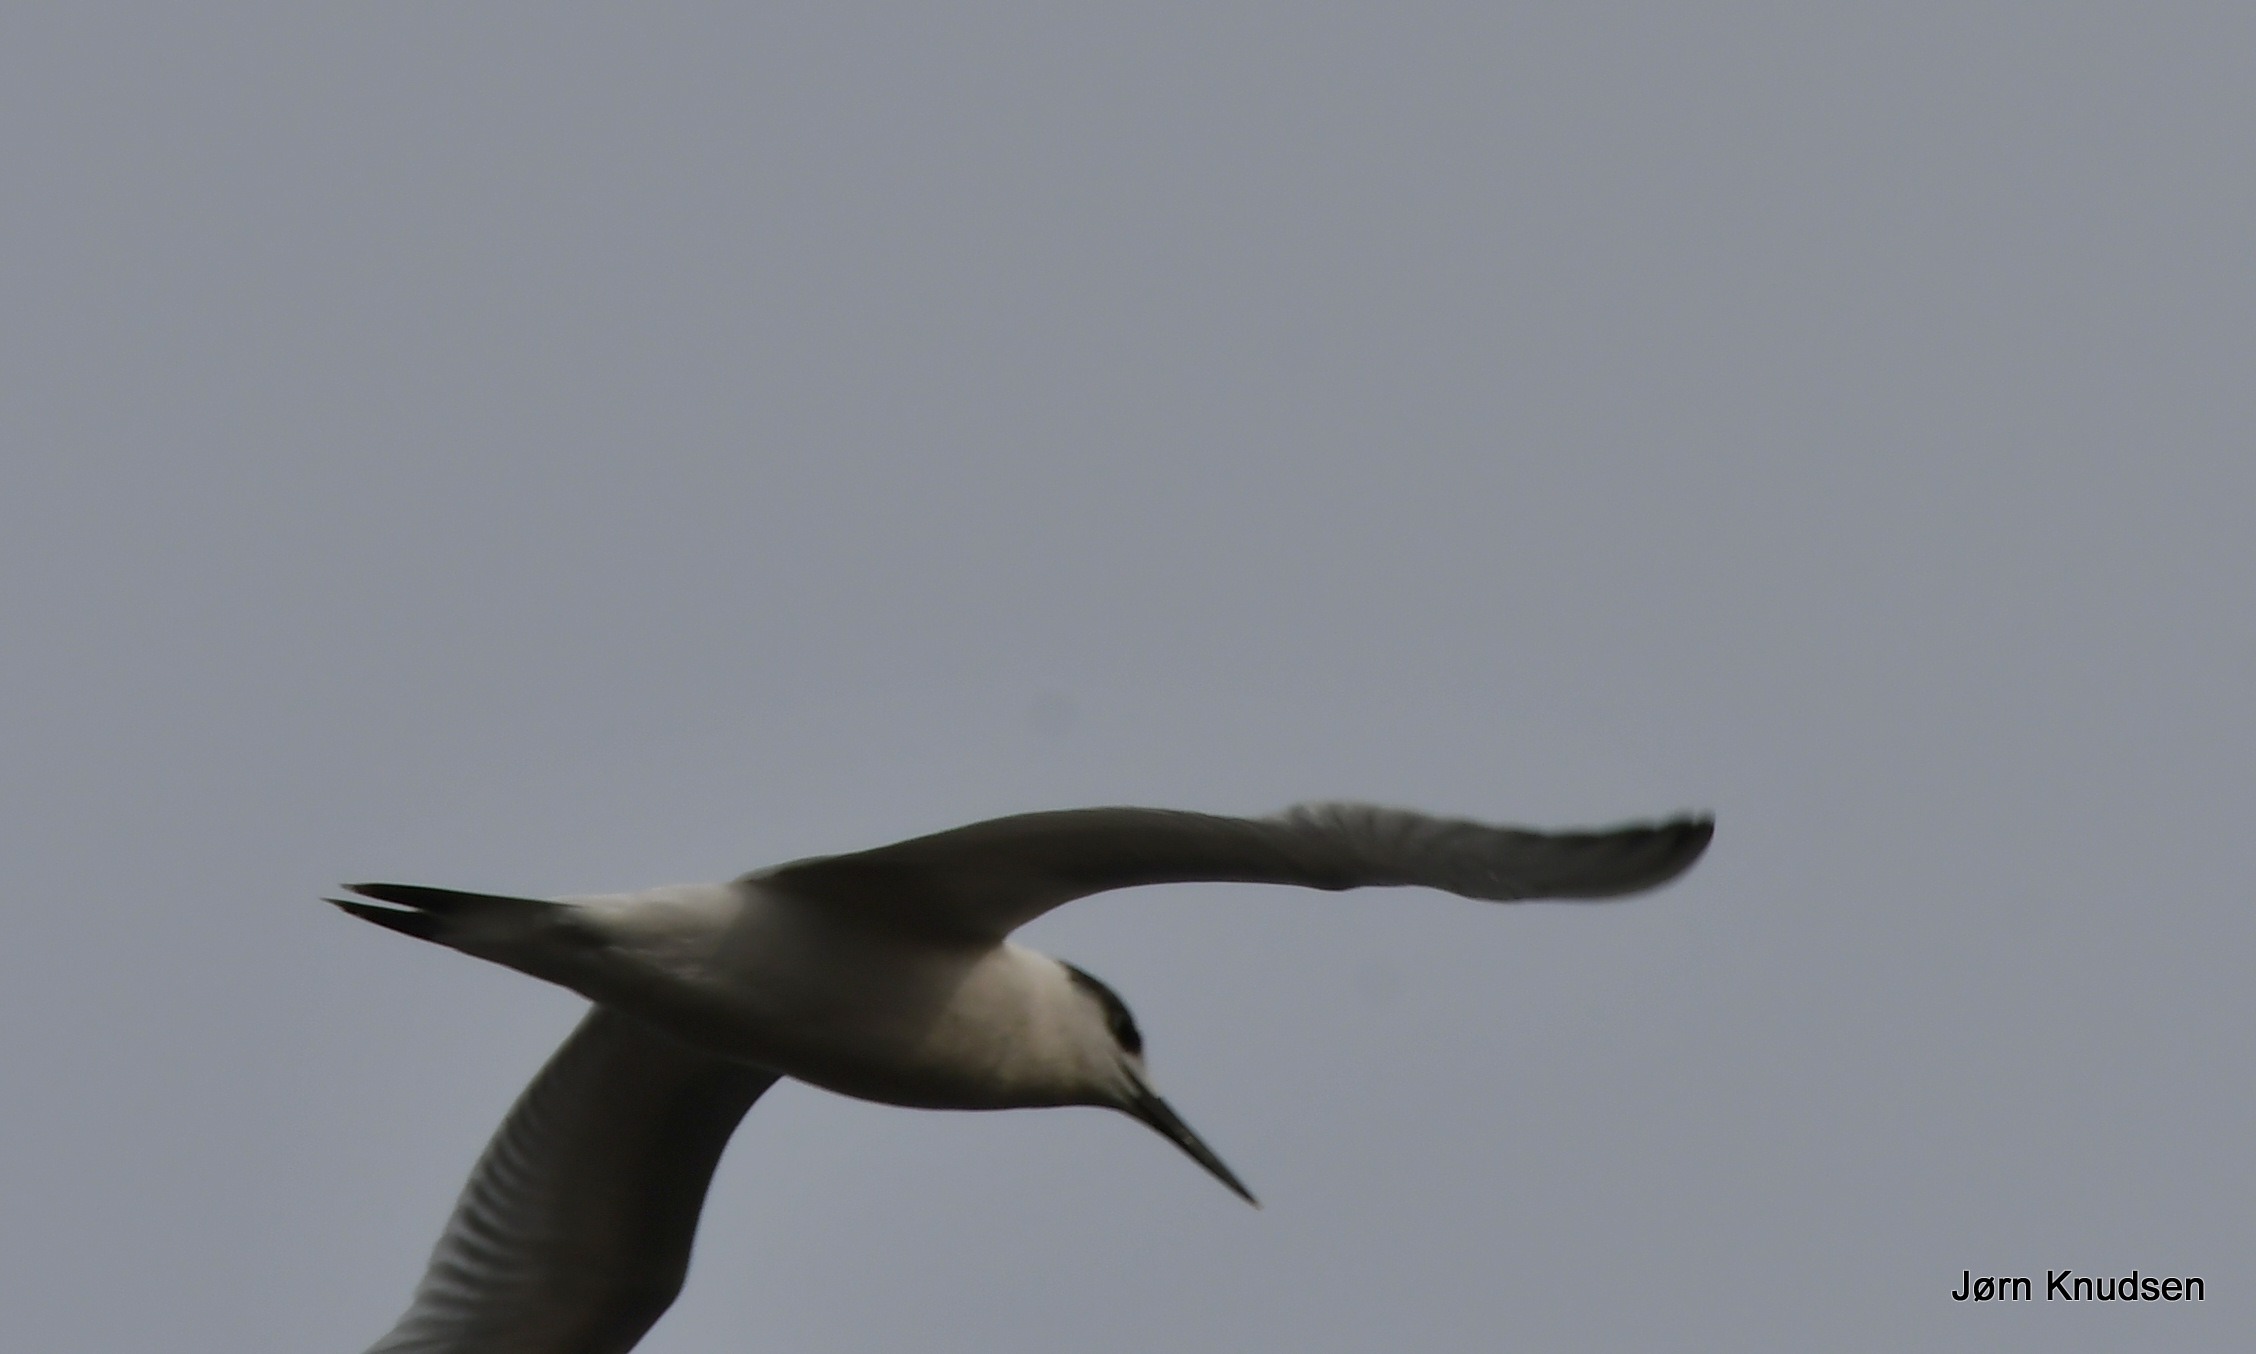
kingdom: Animalia
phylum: Chordata
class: Aves
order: Charadriiformes
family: Laridae
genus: Thalasseus
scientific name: Thalasseus sandvicensis
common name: Splitterne
